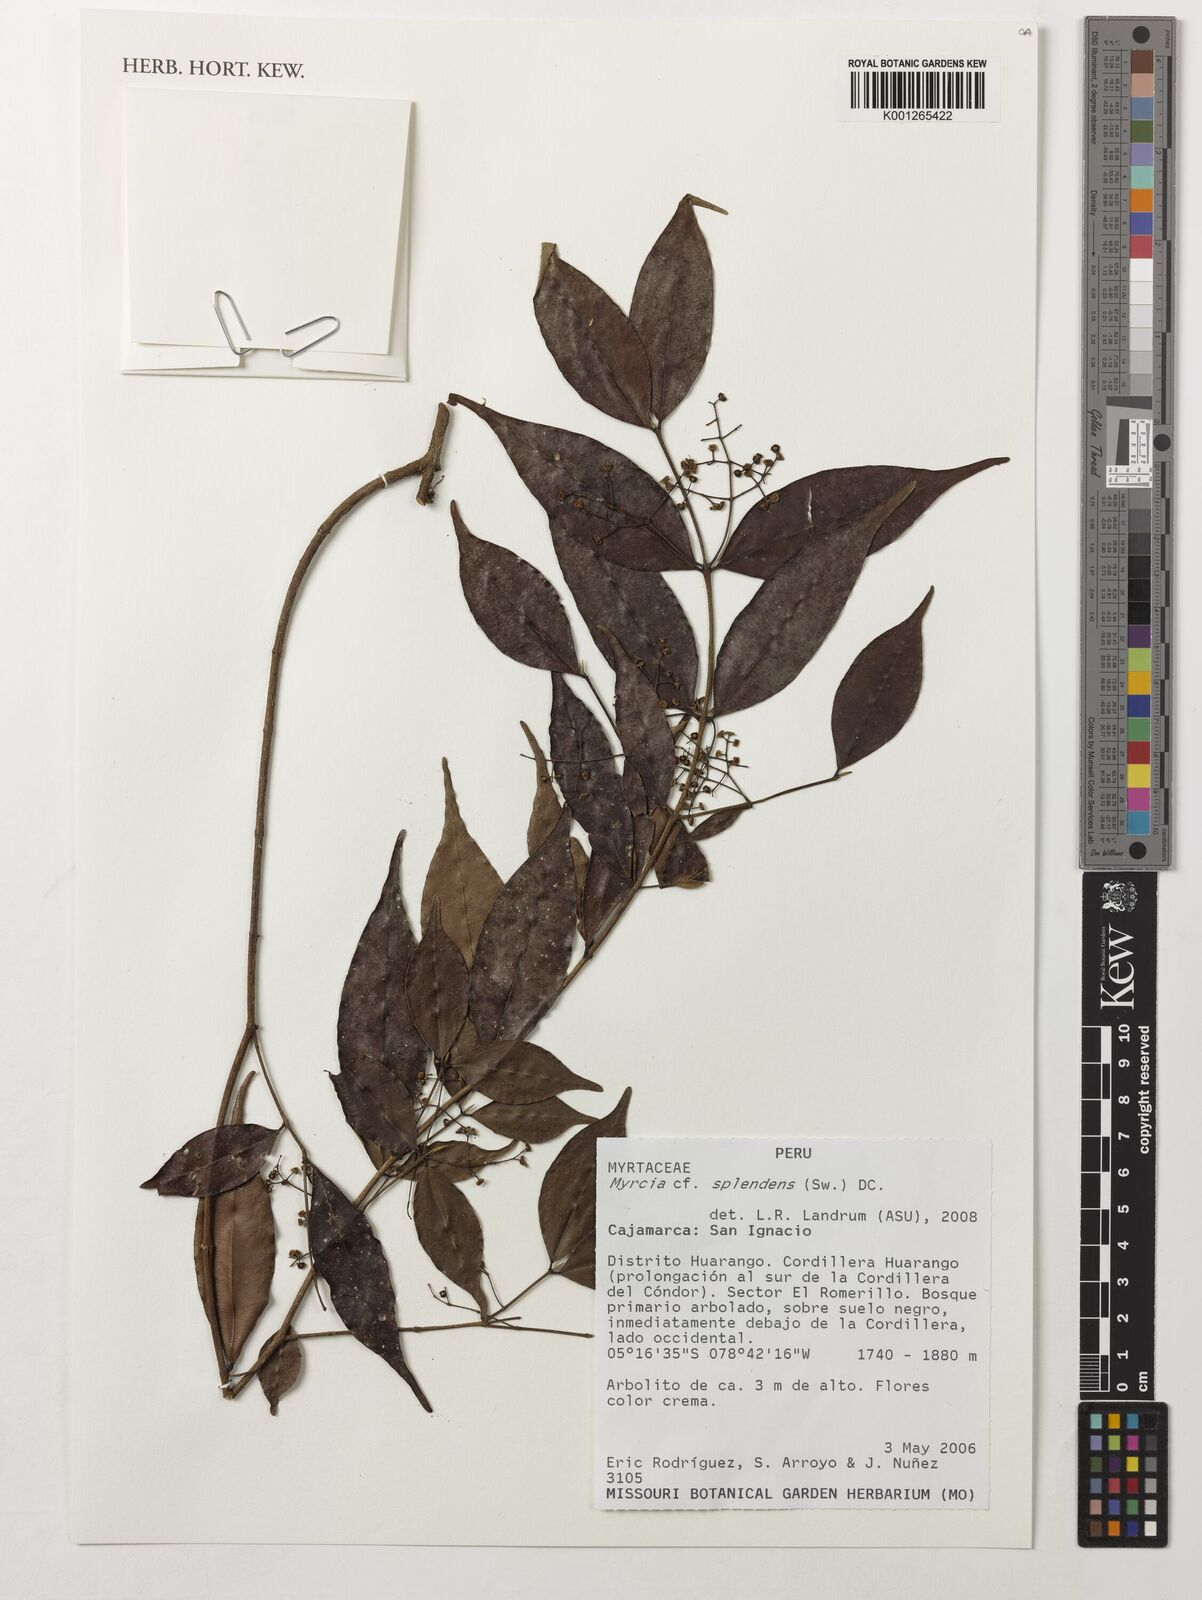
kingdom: Plantae
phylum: Tracheophyta
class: Magnoliopsida
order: Myrtales
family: Myrtaceae
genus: Myrcia
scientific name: Myrcia splendens
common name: Surinam cherry
